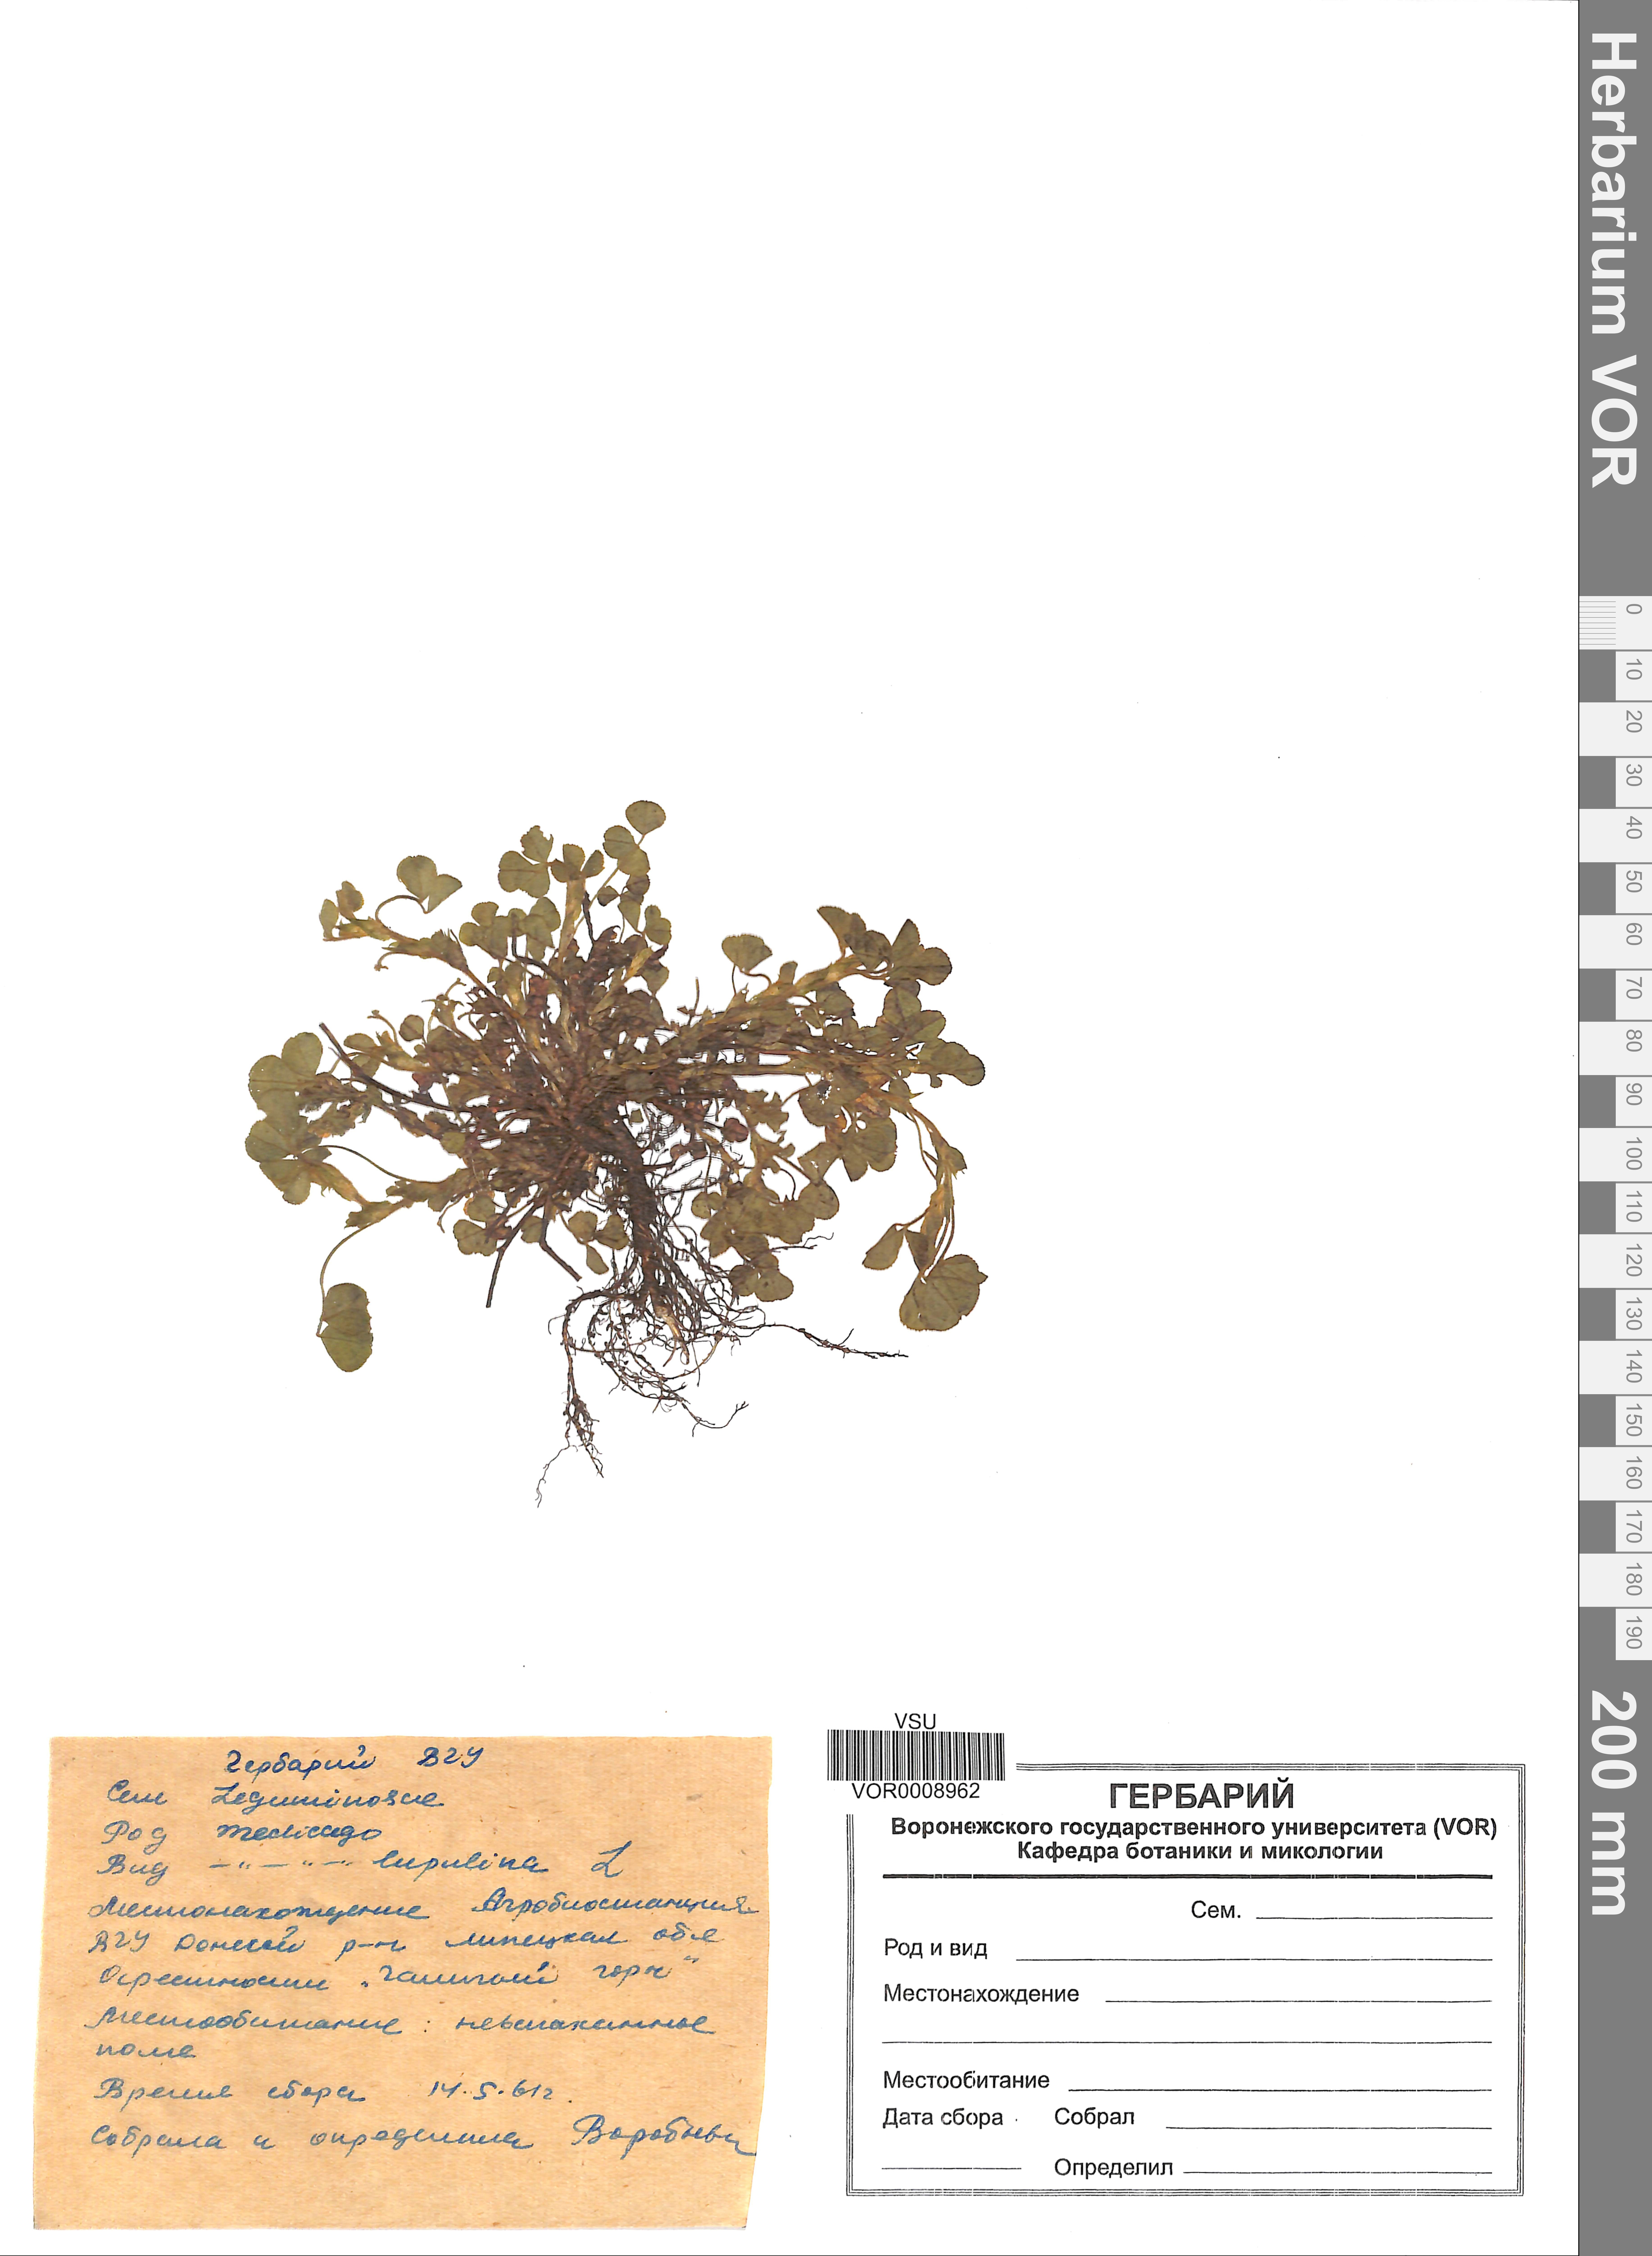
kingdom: Plantae
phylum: Tracheophyta
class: Magnoliopsida
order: Fabales
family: Fabaceae
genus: Medicago
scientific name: Medicago lupulina
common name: Black medick
